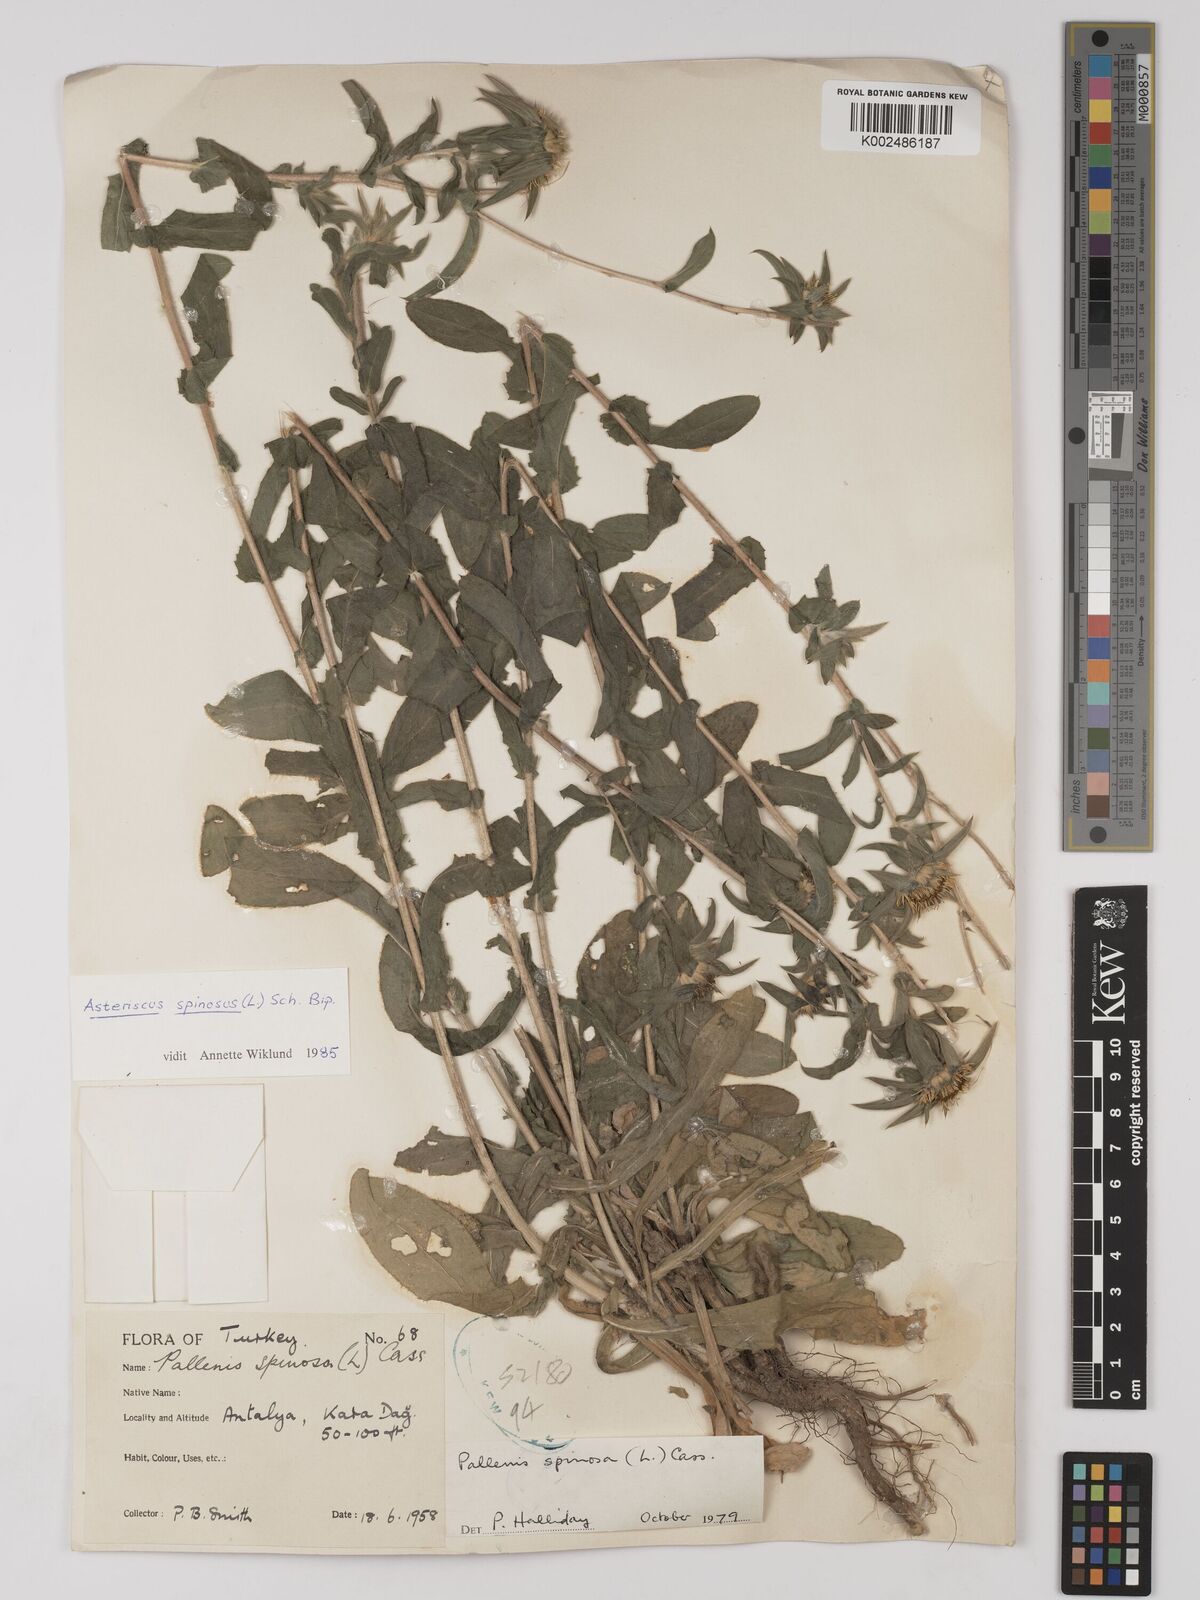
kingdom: Plantae
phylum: Tracheophyta
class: Magnoliopsida
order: Asterales
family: Asteraceae
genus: Pallenis
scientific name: Pallenis spinosa
